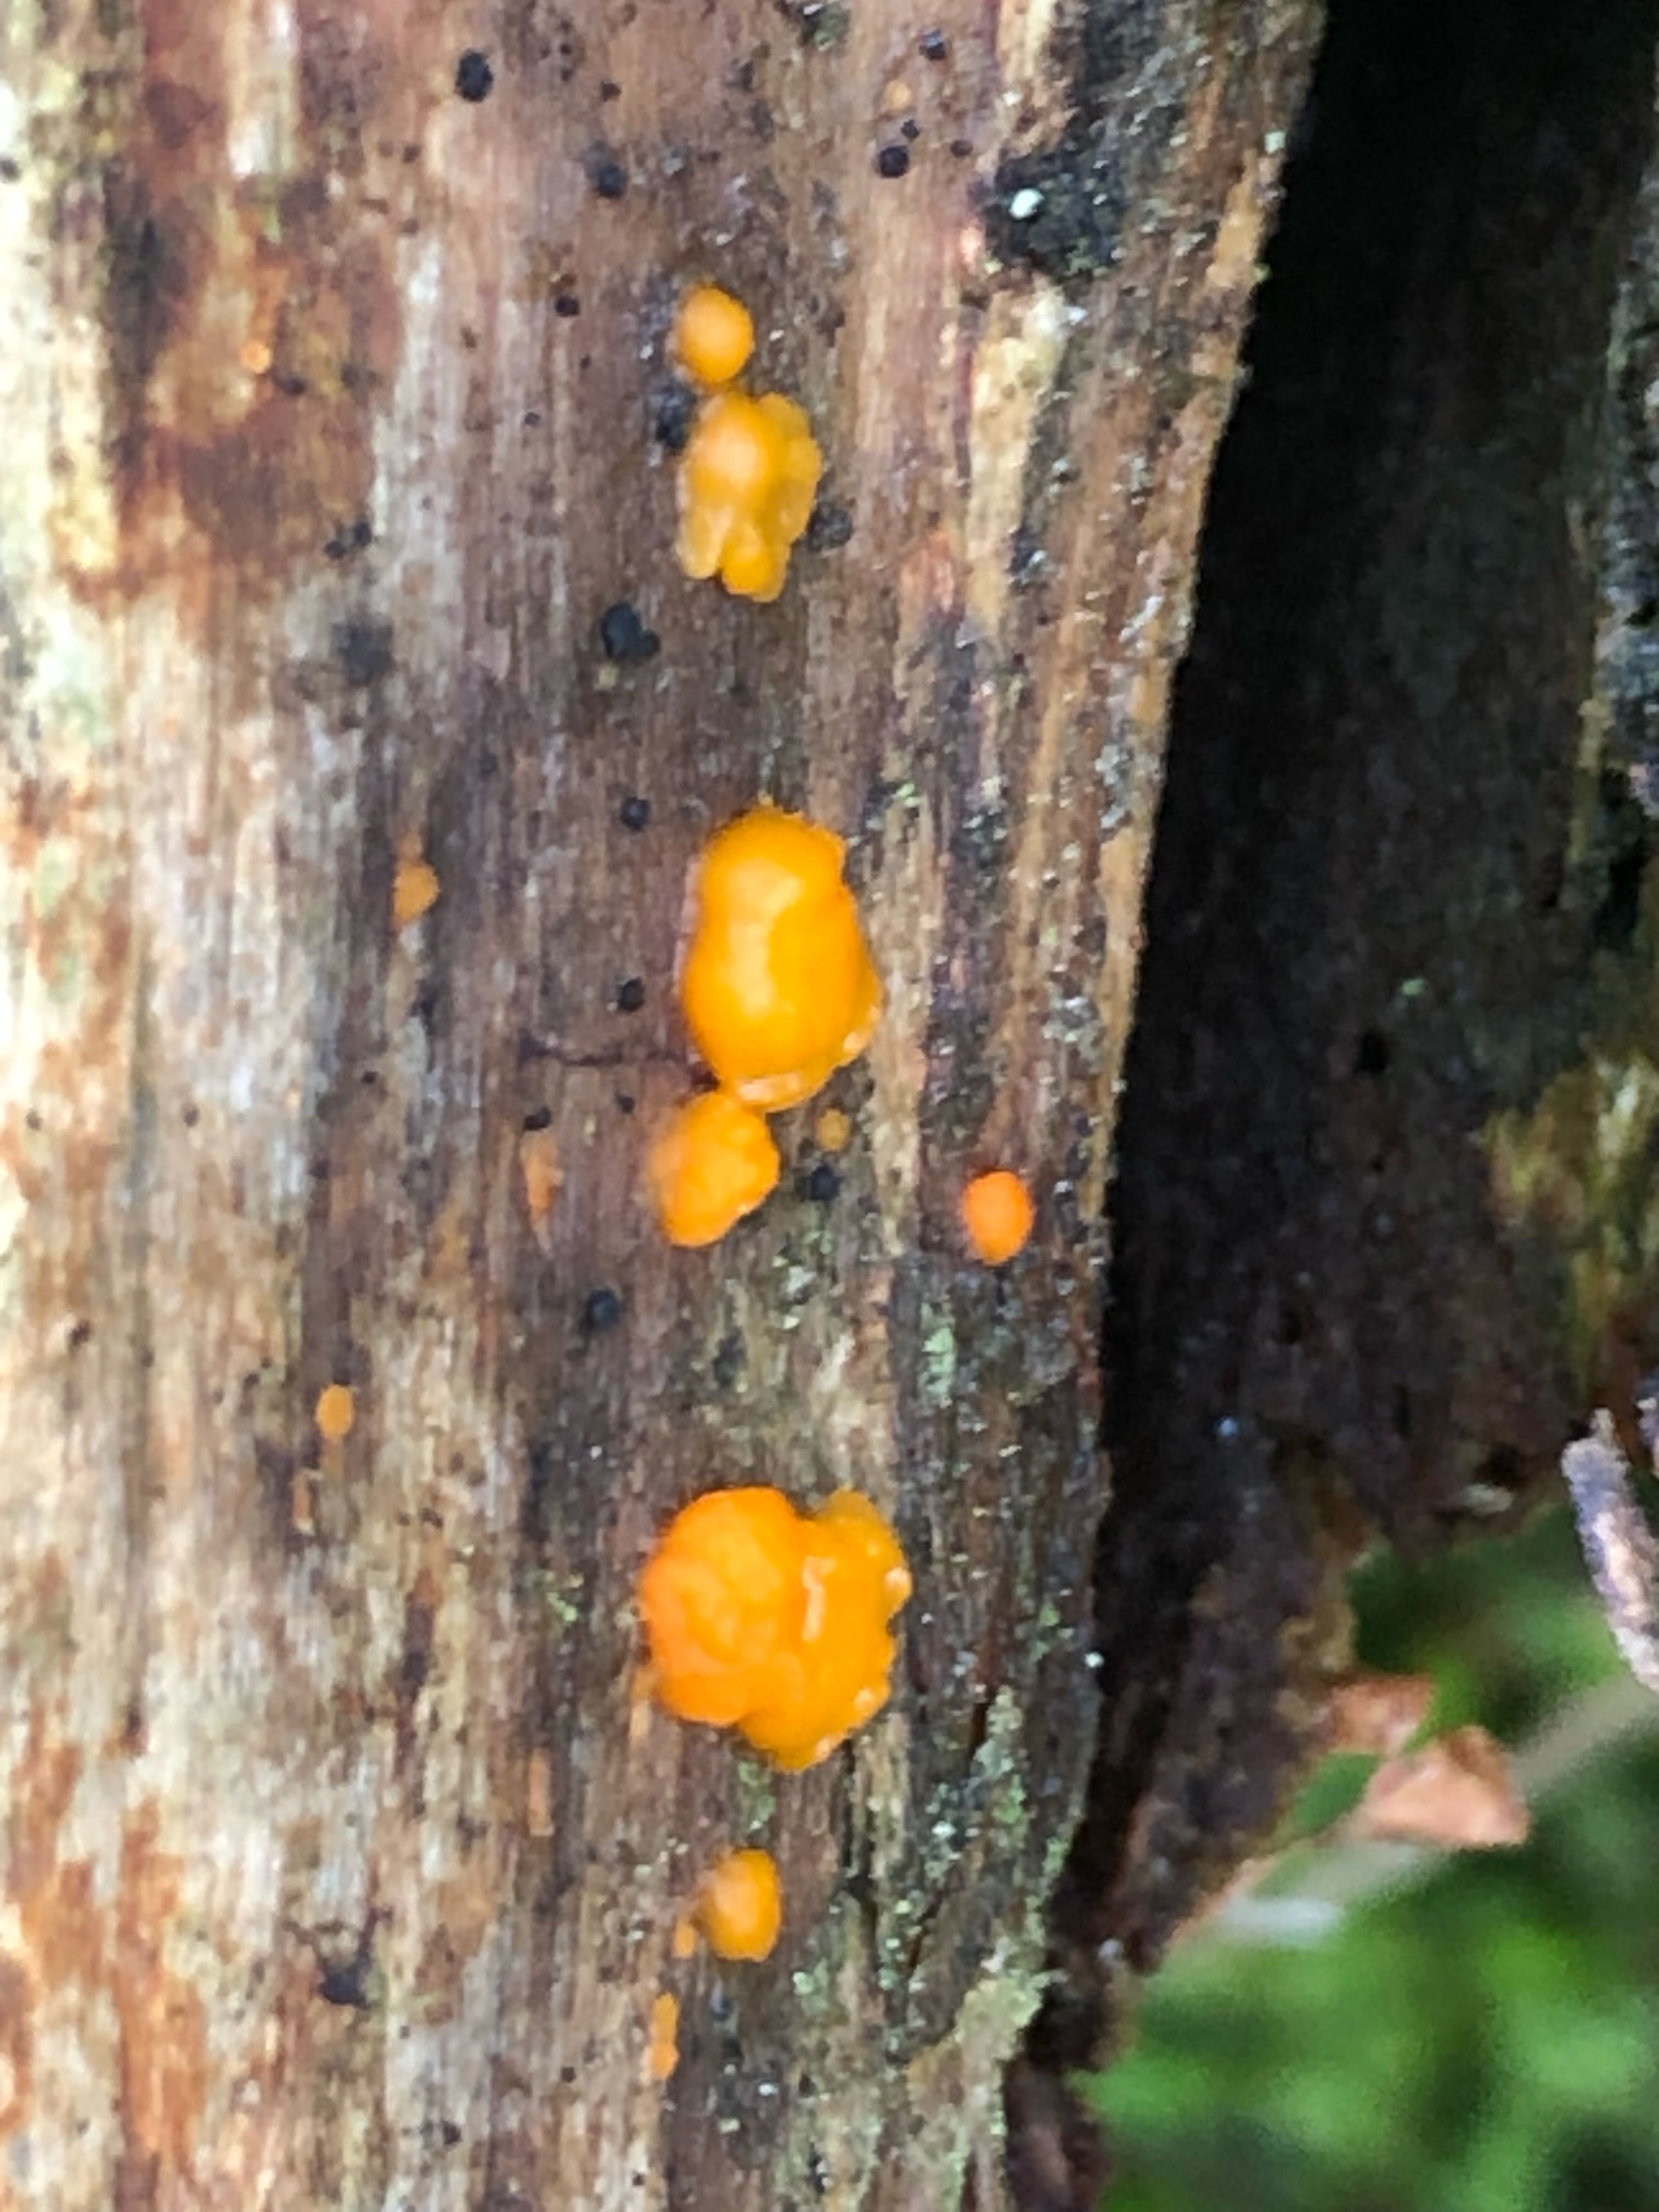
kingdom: Fungi
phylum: Basidiomycota
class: Dacrymycetes
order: Dacrymycetales
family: Dacrymycetaceae
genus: Dacrymyces
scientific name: Dacrymyces stillatus
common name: almindelig tåresvamp
